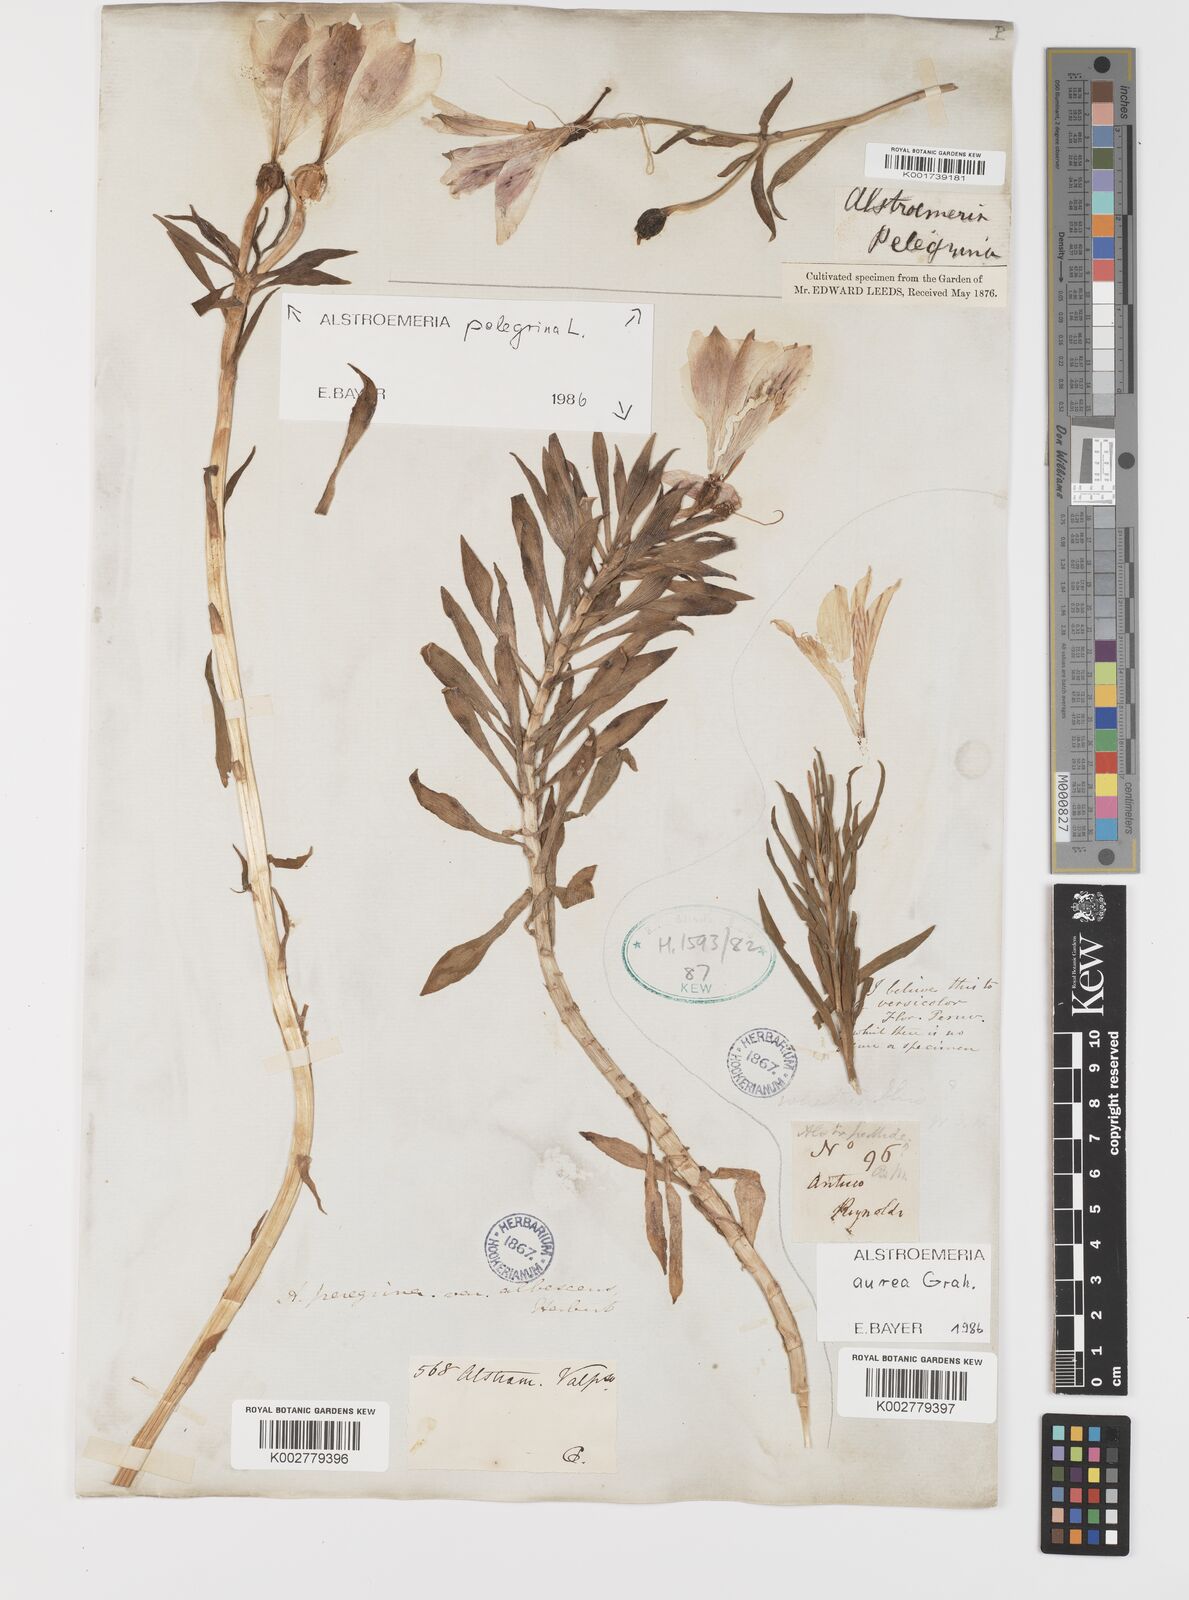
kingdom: Plantae
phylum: Tracheophyta
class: Liliopsida
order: Liliales
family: Alstroemeriaceae
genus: Alstroemeria
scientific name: Alstroemeria pelegrina
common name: Peruvian-lily
